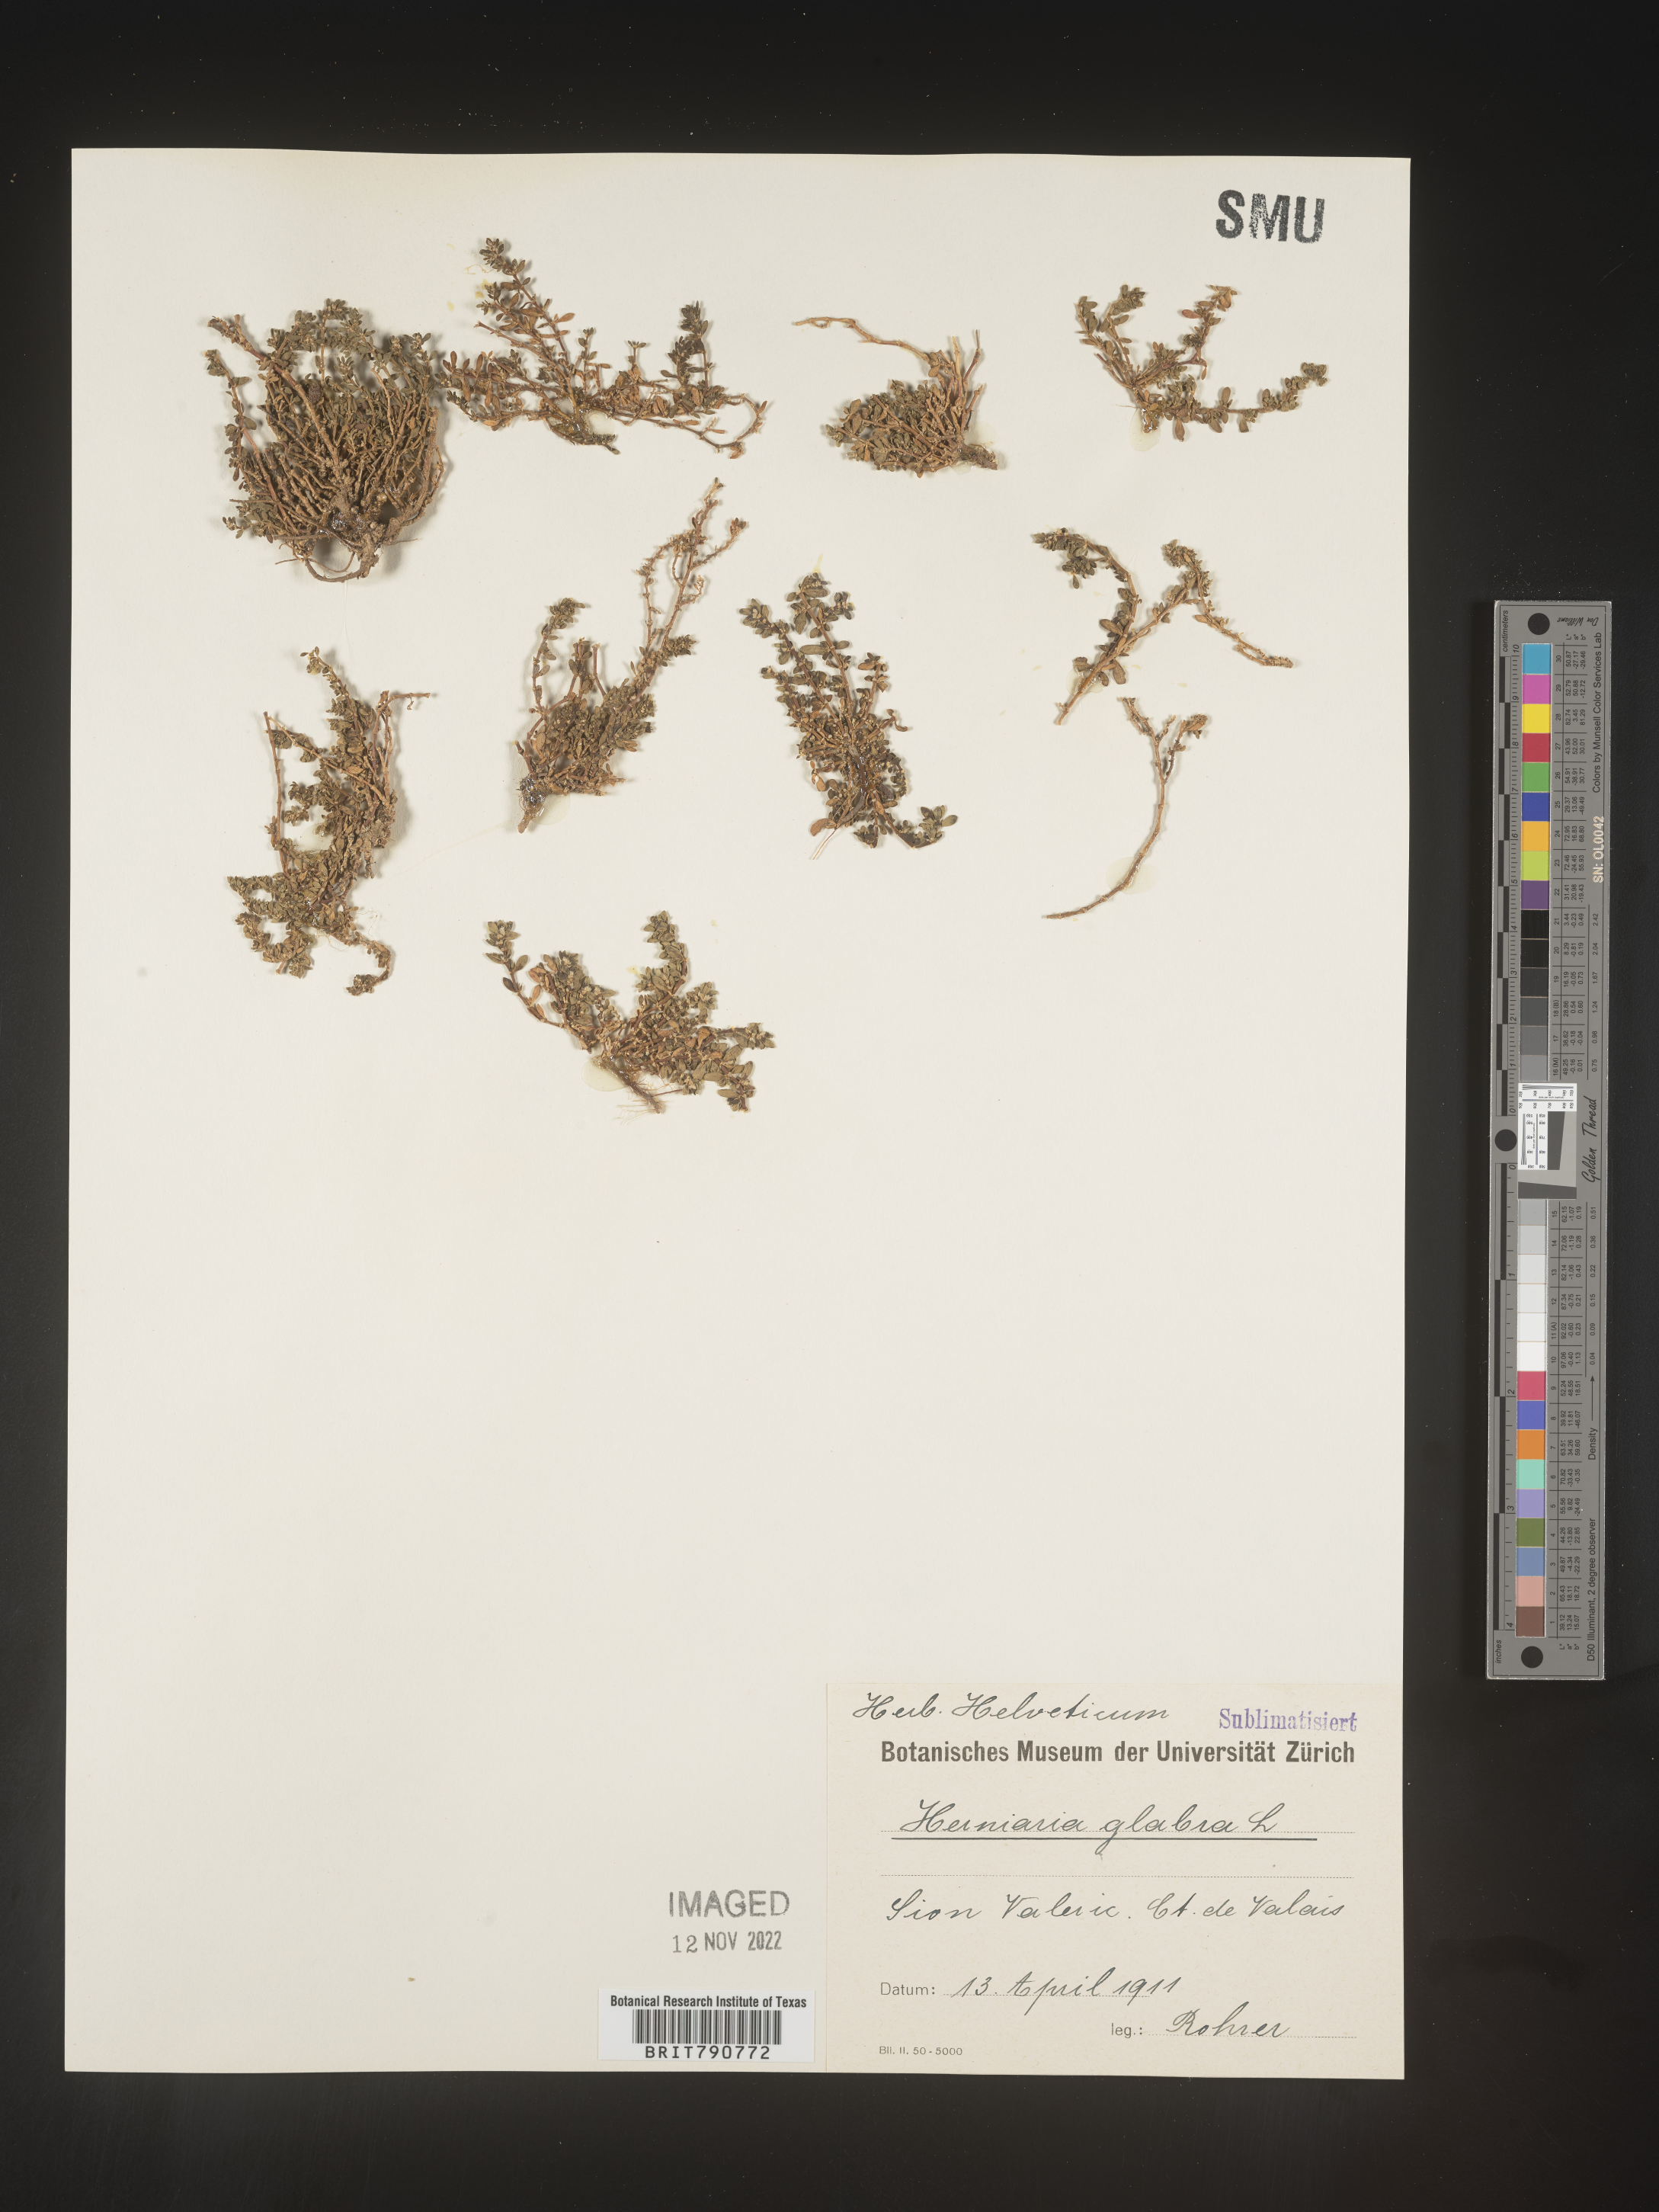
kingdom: Plantae
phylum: Tracheophyta
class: Magnoliopsida
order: Caryophyllales
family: Caryophyllaceae
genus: Herniaria
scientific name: Herniaria
